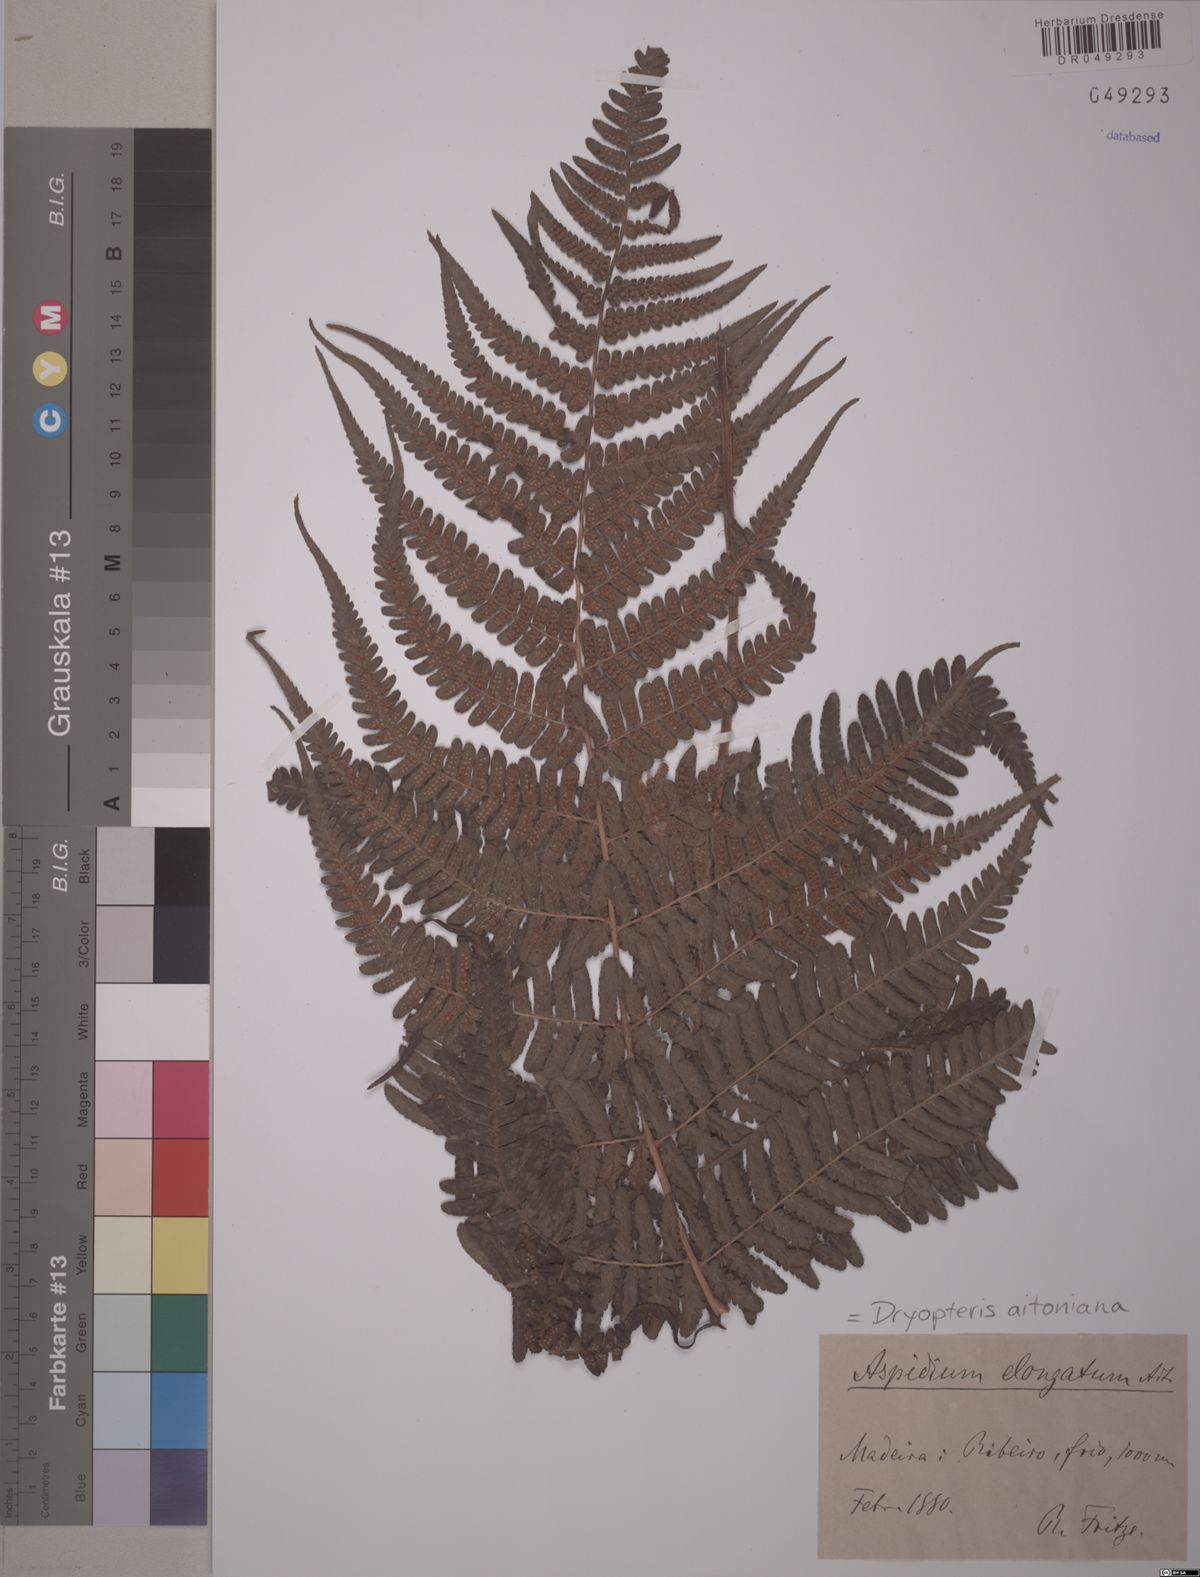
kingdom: Plantae
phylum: Tracheophyta
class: Polypodiopsida
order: Polypodiales
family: Dryopteridaceae
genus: Dryopteris
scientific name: Dryopteris aitoniana
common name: Aiton's buckler-fern
